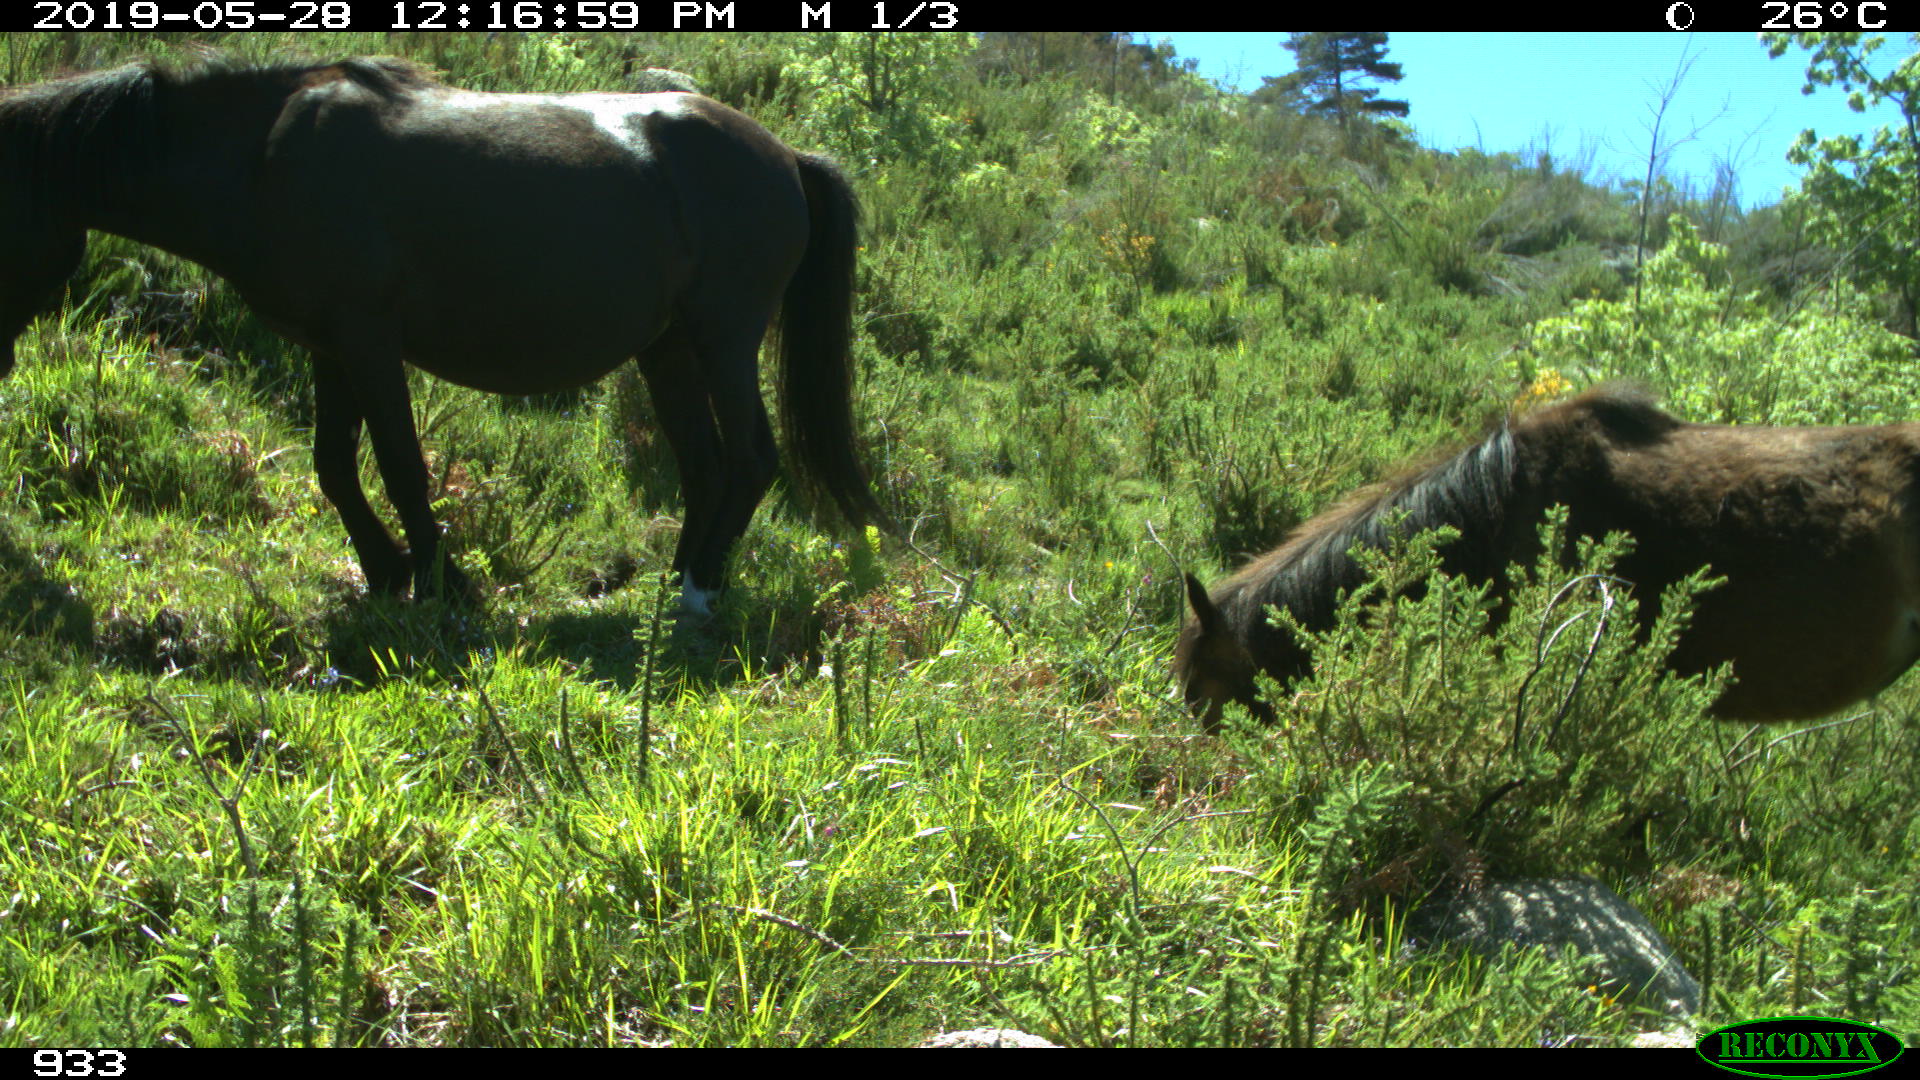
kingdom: Animalia
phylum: Chordata
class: Mammalia
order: Perissodactyla
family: Equidae
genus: Equus
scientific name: Equus caballus
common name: Horse
